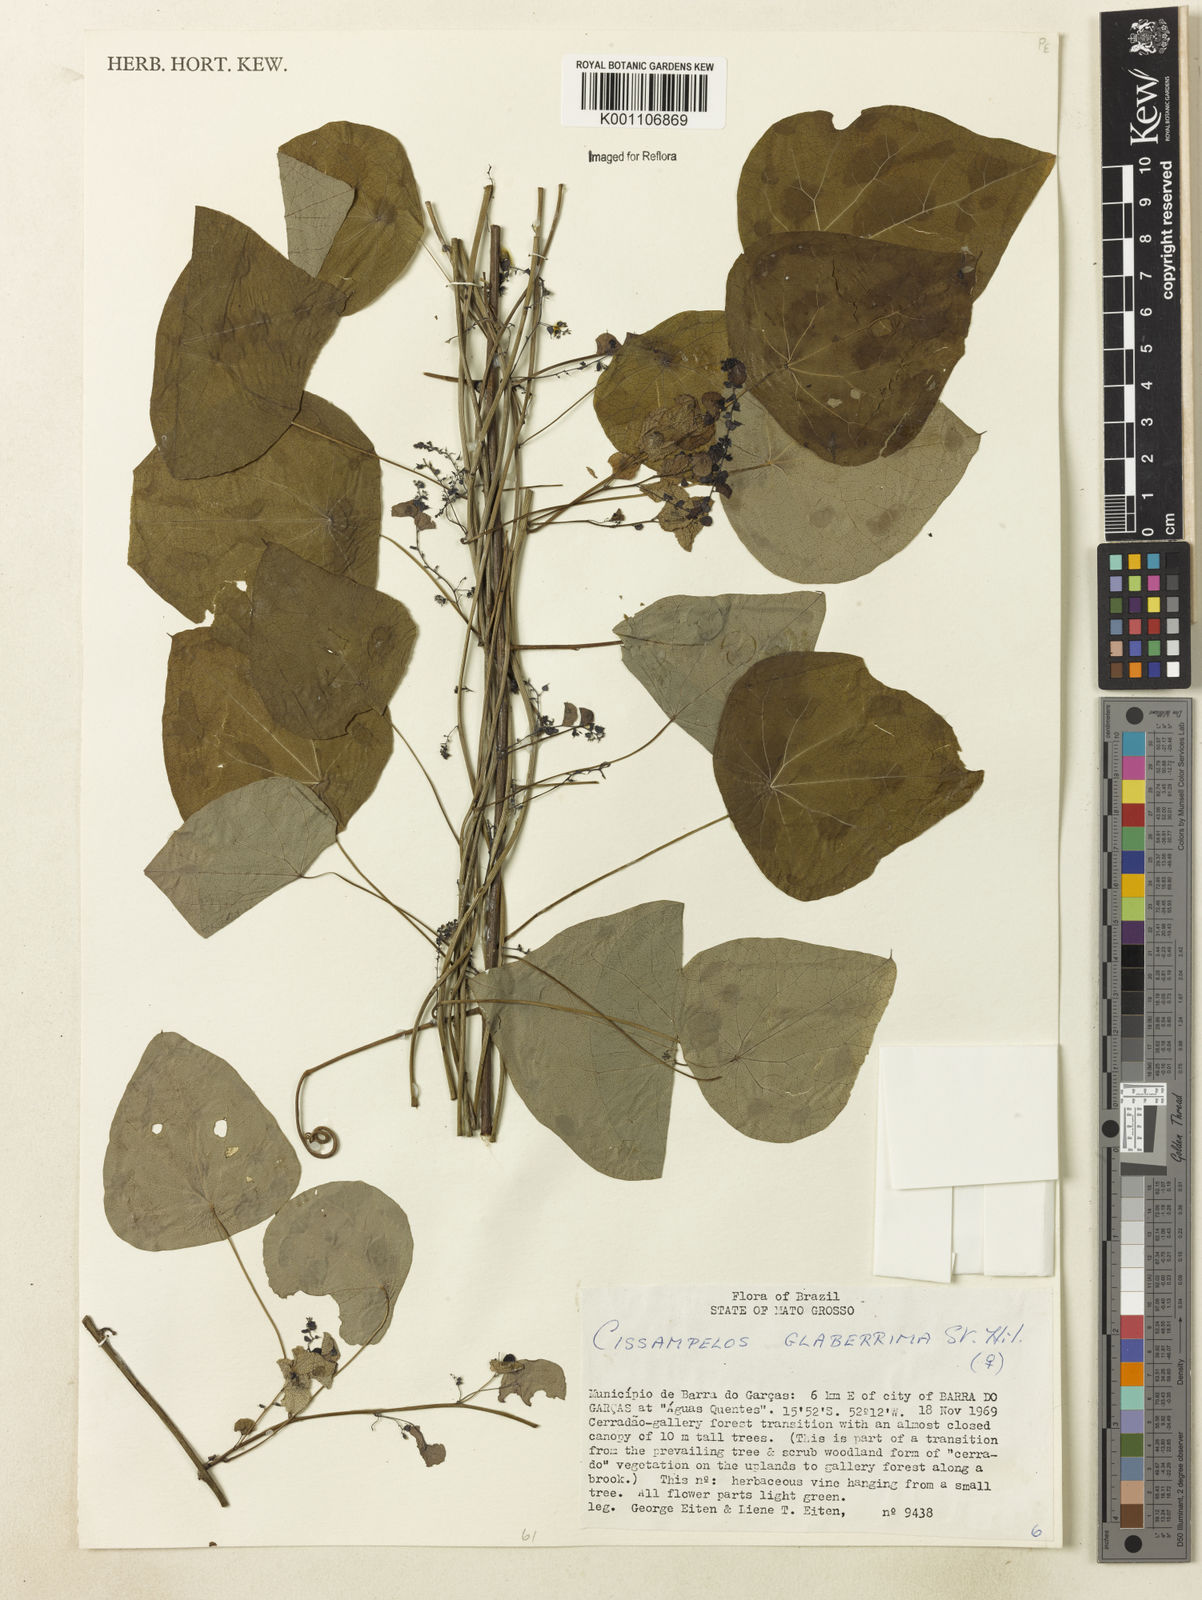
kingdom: Plantae
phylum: Tracheophyta
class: Magnoliopsida
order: Ranunculales
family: Menispermaceae
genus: Cissampelos
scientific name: Cissampelos glaberrima
